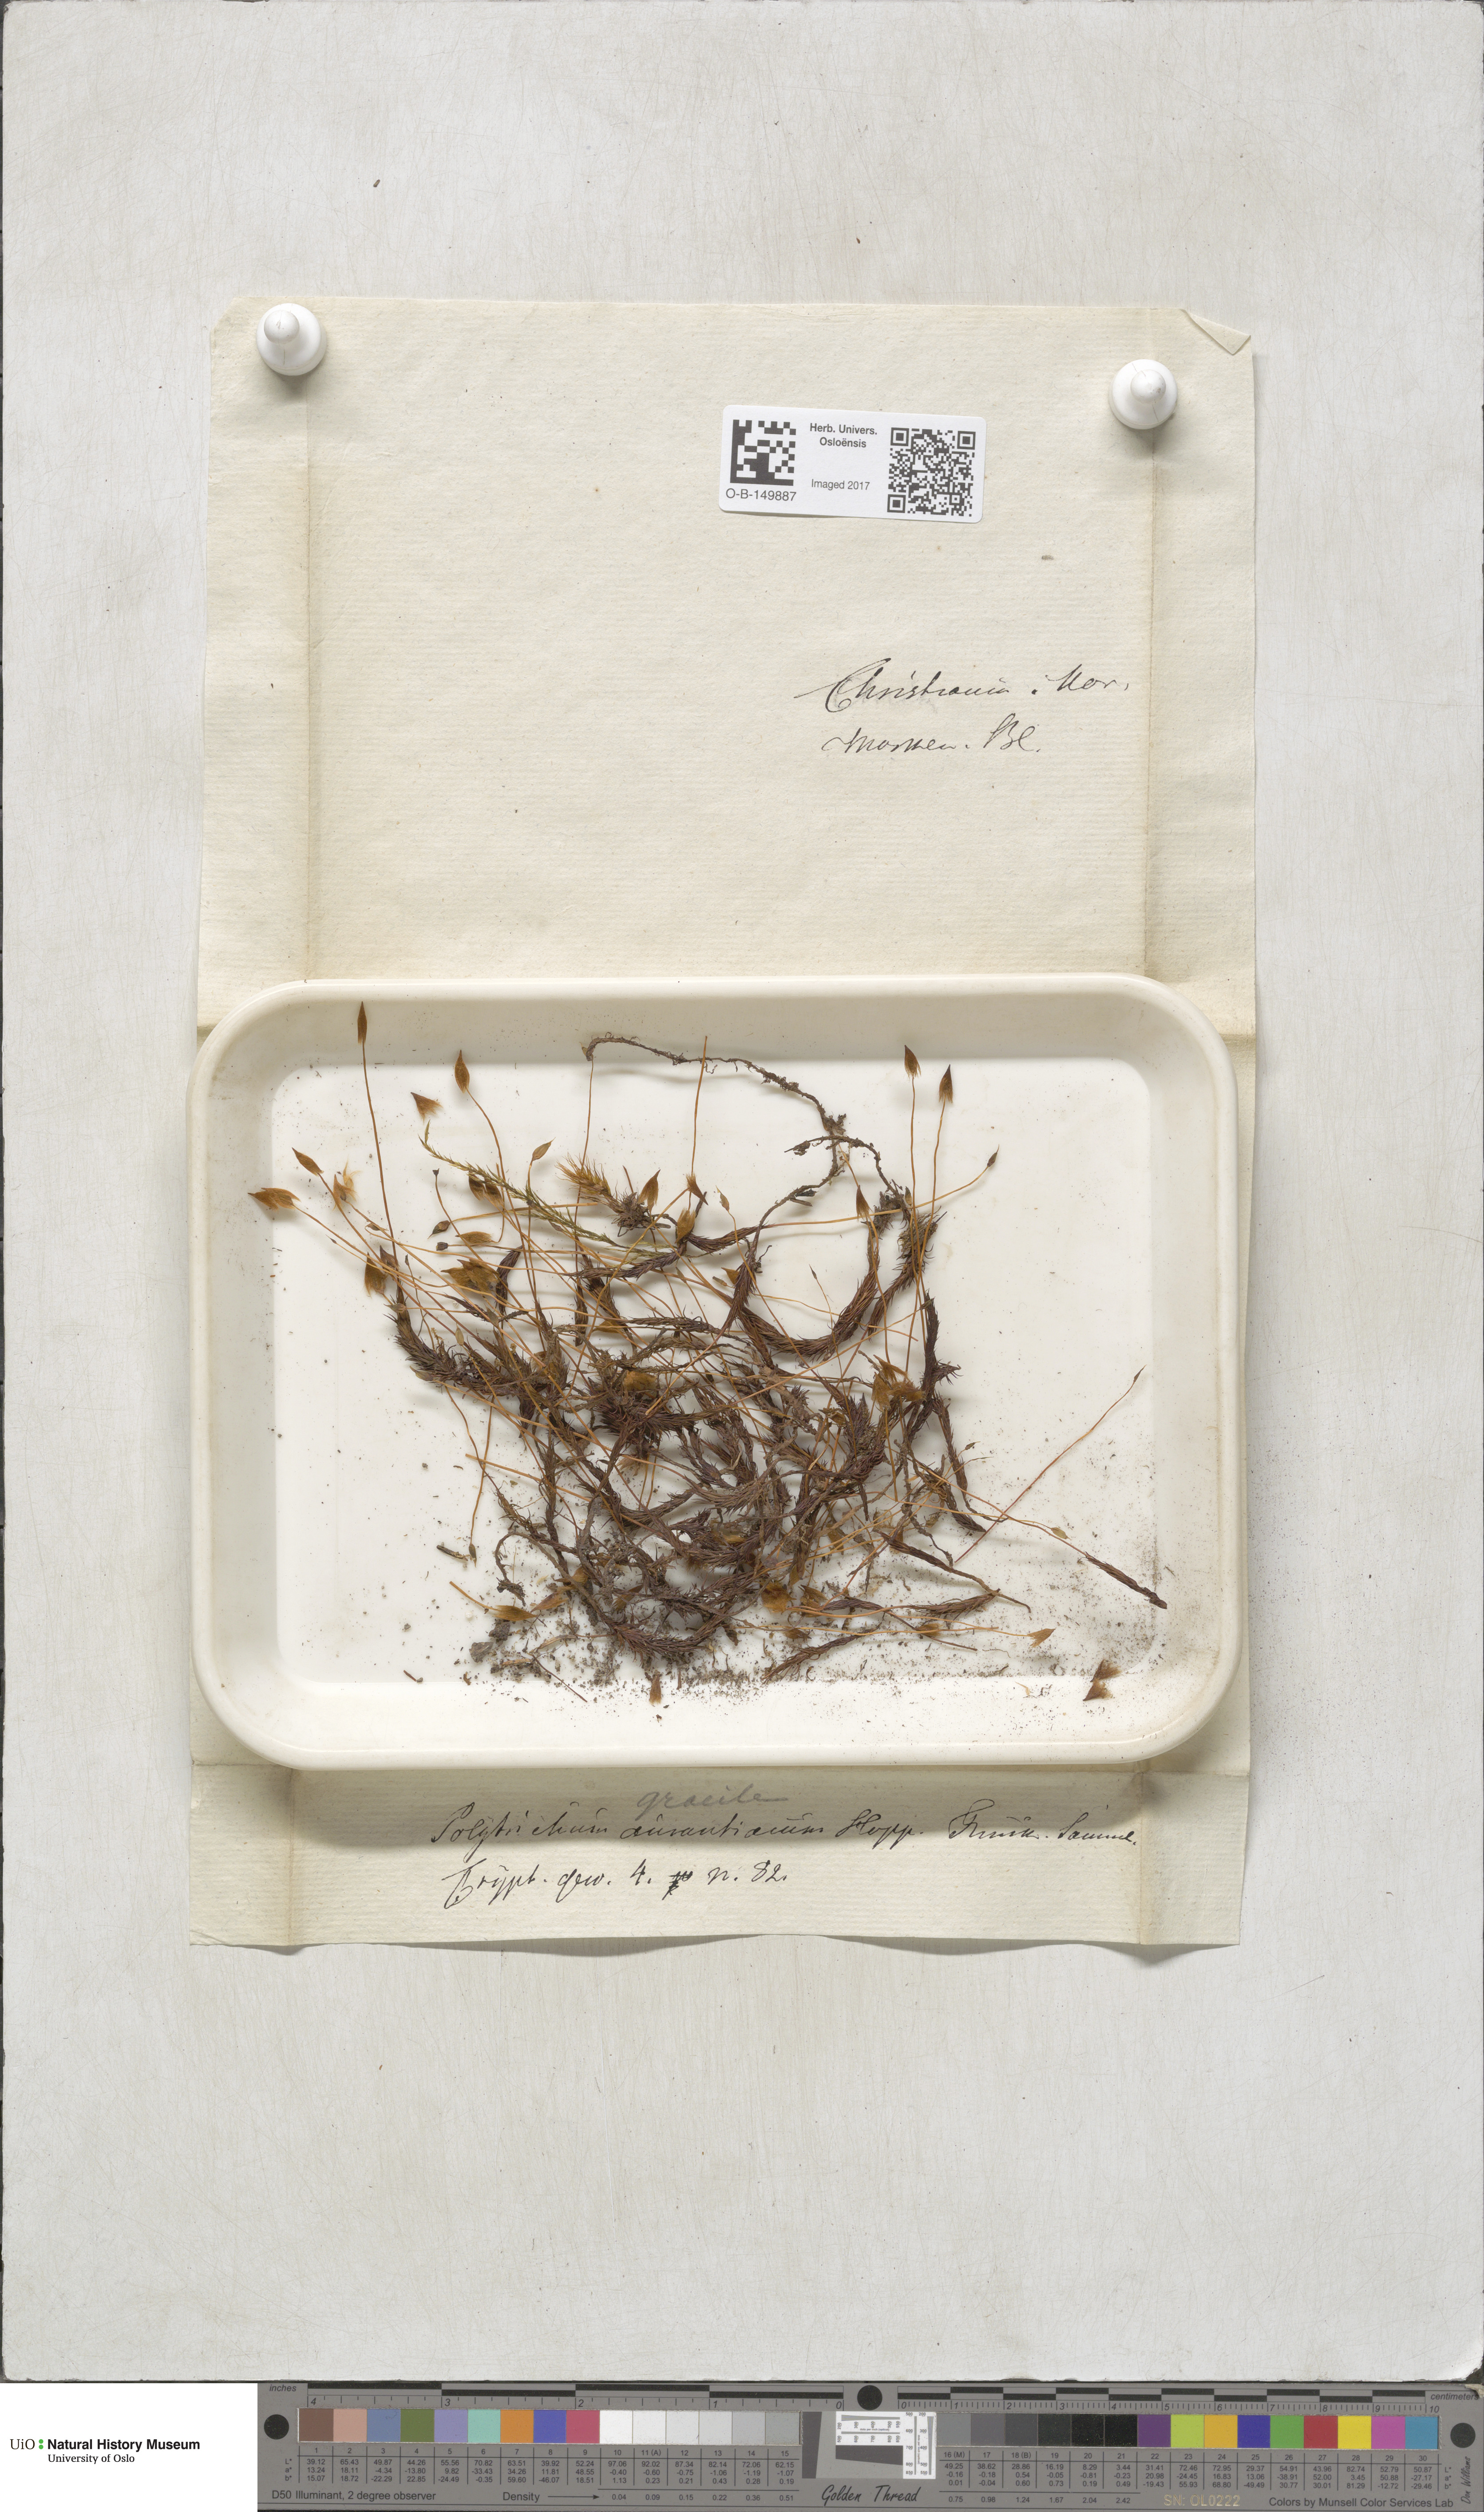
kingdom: Plantae
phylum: Bryophyta
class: Polytrichopsida
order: Polytrichales
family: Polytrichaceae
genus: Polytrichum
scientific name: Polytrichum longisetum
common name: Long-stalked haircap moss
